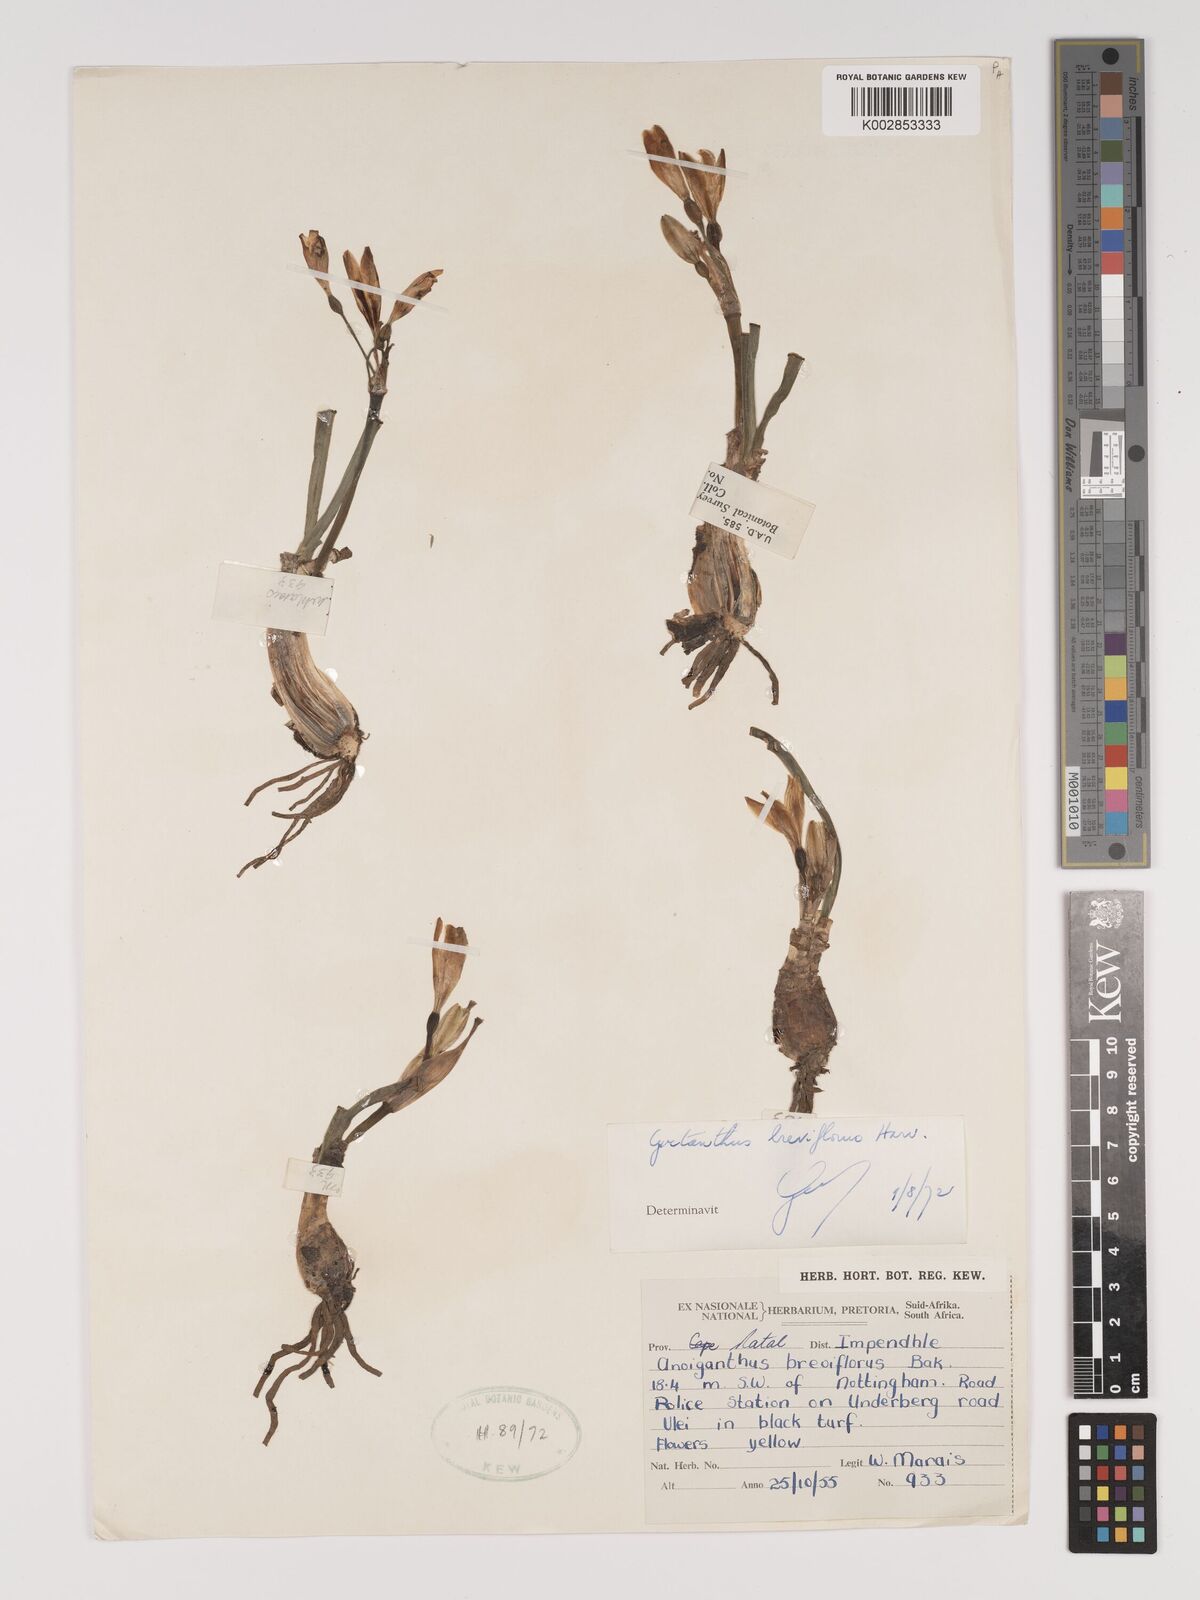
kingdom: Plantae
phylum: Tracheophyta
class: Liliopsida
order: Asparagales
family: Amaryllidaceae
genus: Cyrtanthus
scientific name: Cyrtanthus breviflorus
